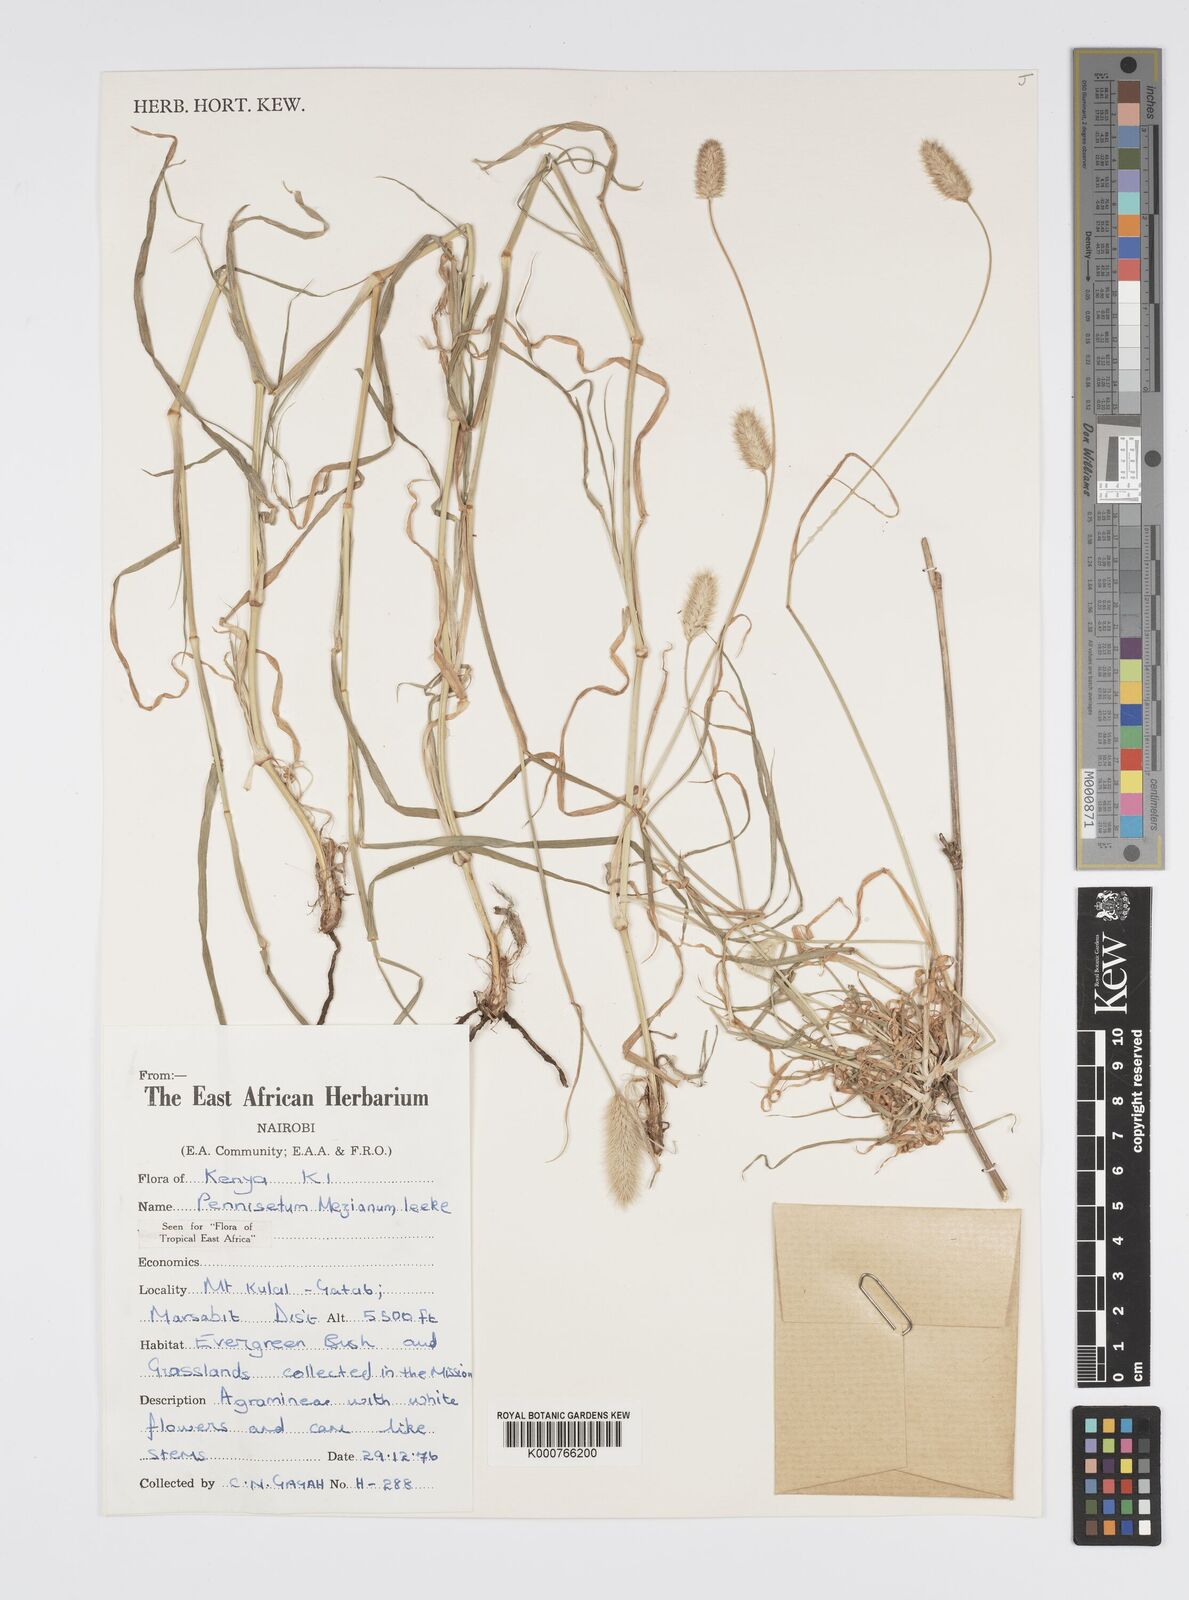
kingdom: Plantae
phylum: Tracheophyta
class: Liliopsida
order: Poales
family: Poaceae
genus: Cenchrus
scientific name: Cenchrus mezianus
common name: Bamboo grass
